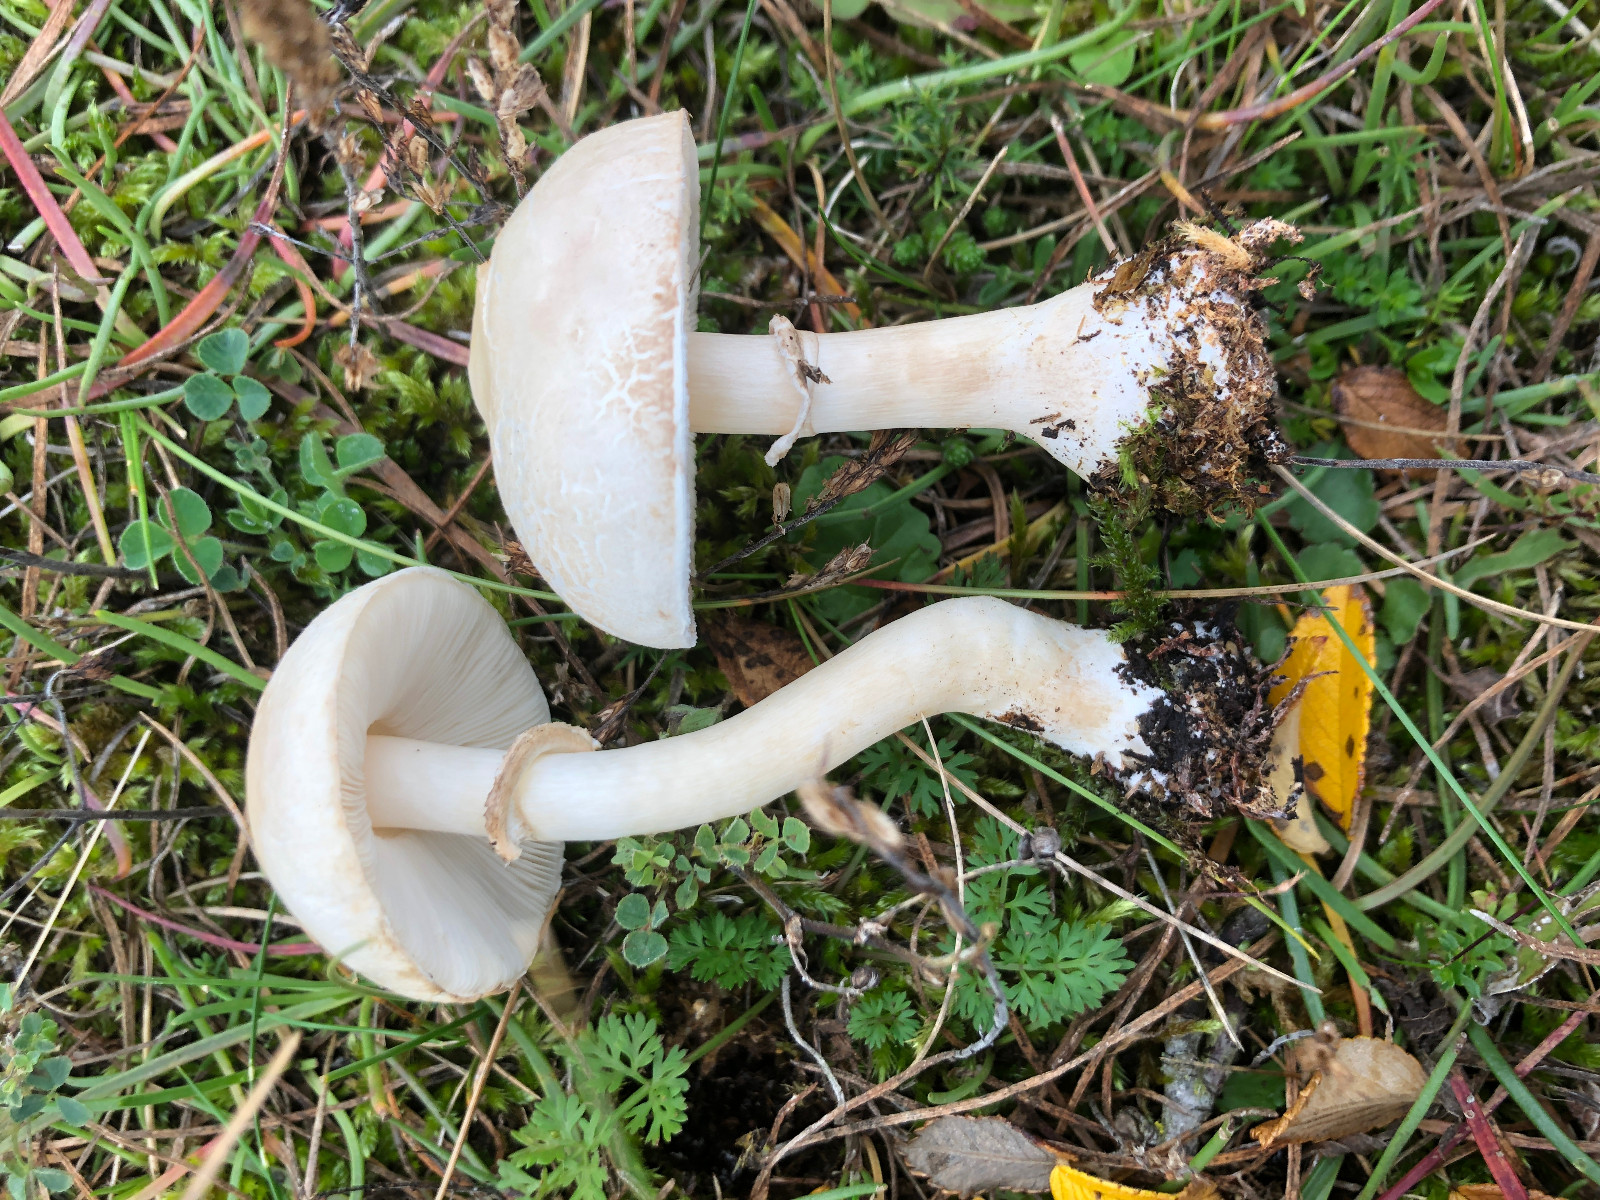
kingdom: Fungi
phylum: Basidiomycota
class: Agaricomycetes
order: Agaricales
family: Agaricaceae
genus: Leucoagaricus
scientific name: Leucoagaricus leucothites
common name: rosabladet silkehat
